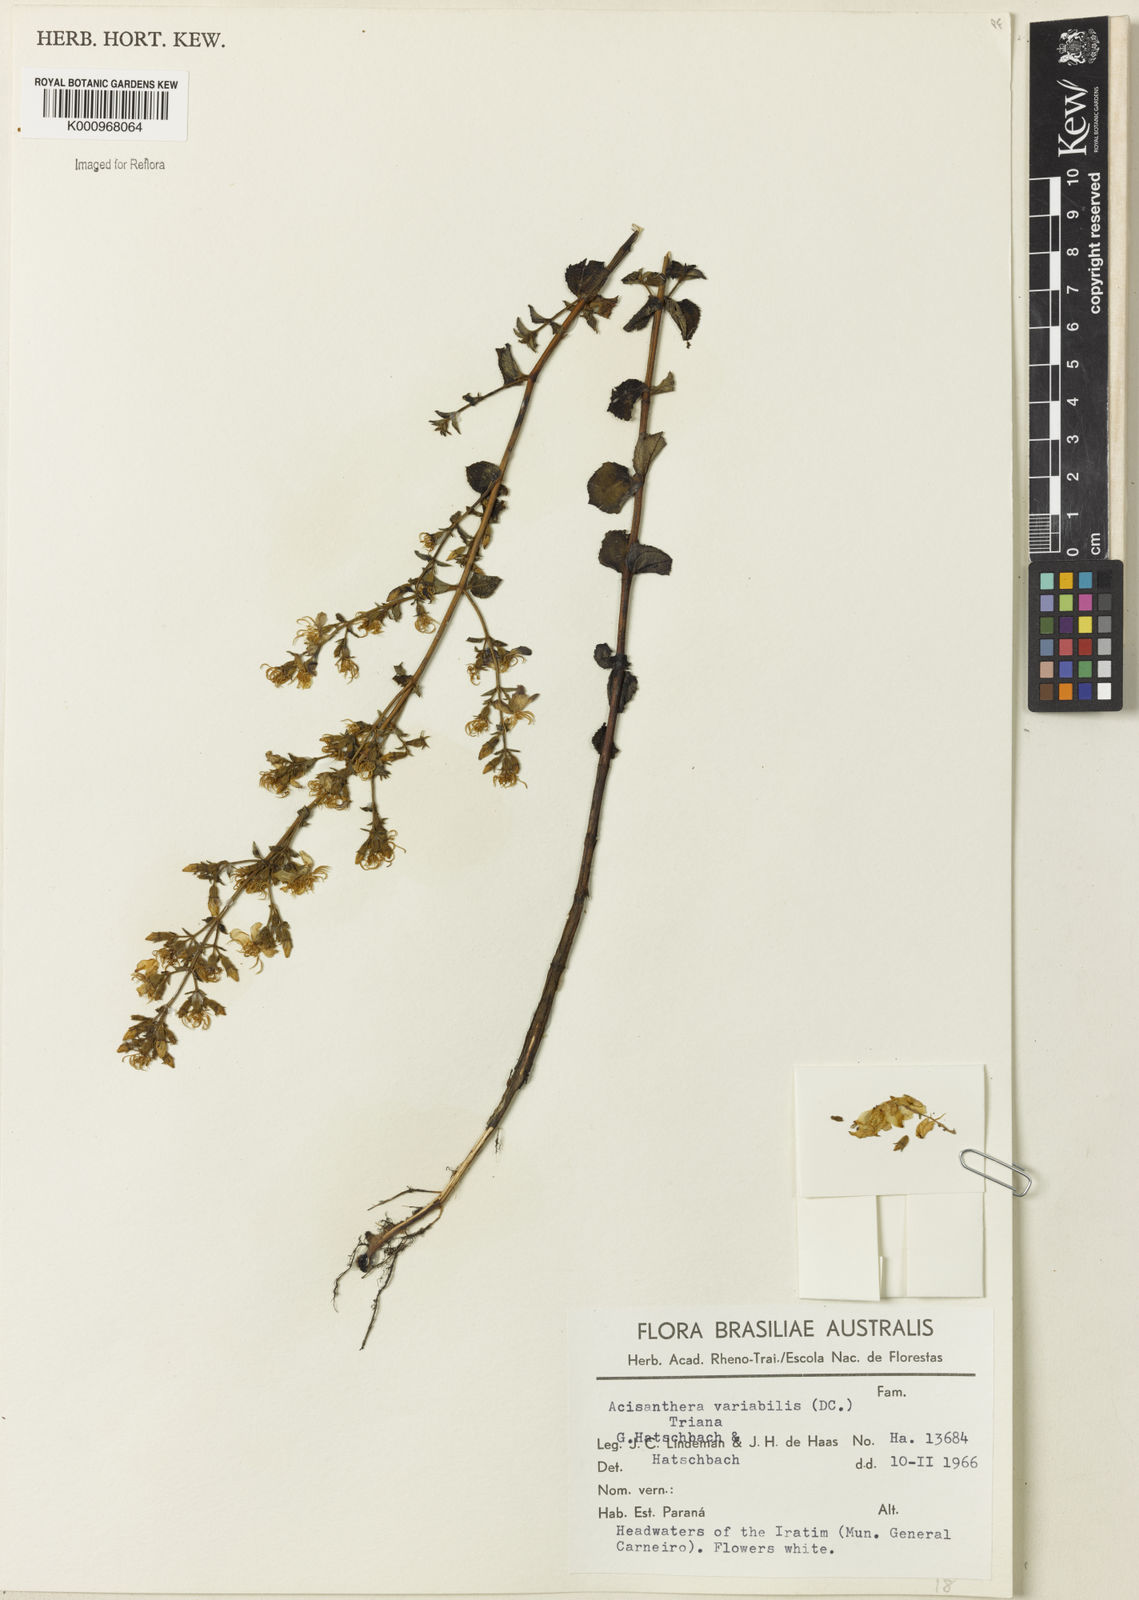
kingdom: Plantae
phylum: Tracheophyta
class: Magnoliopsida
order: Myrtales
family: Melastomataceae
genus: Acisanthera
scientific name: Acisanthera variabilis
